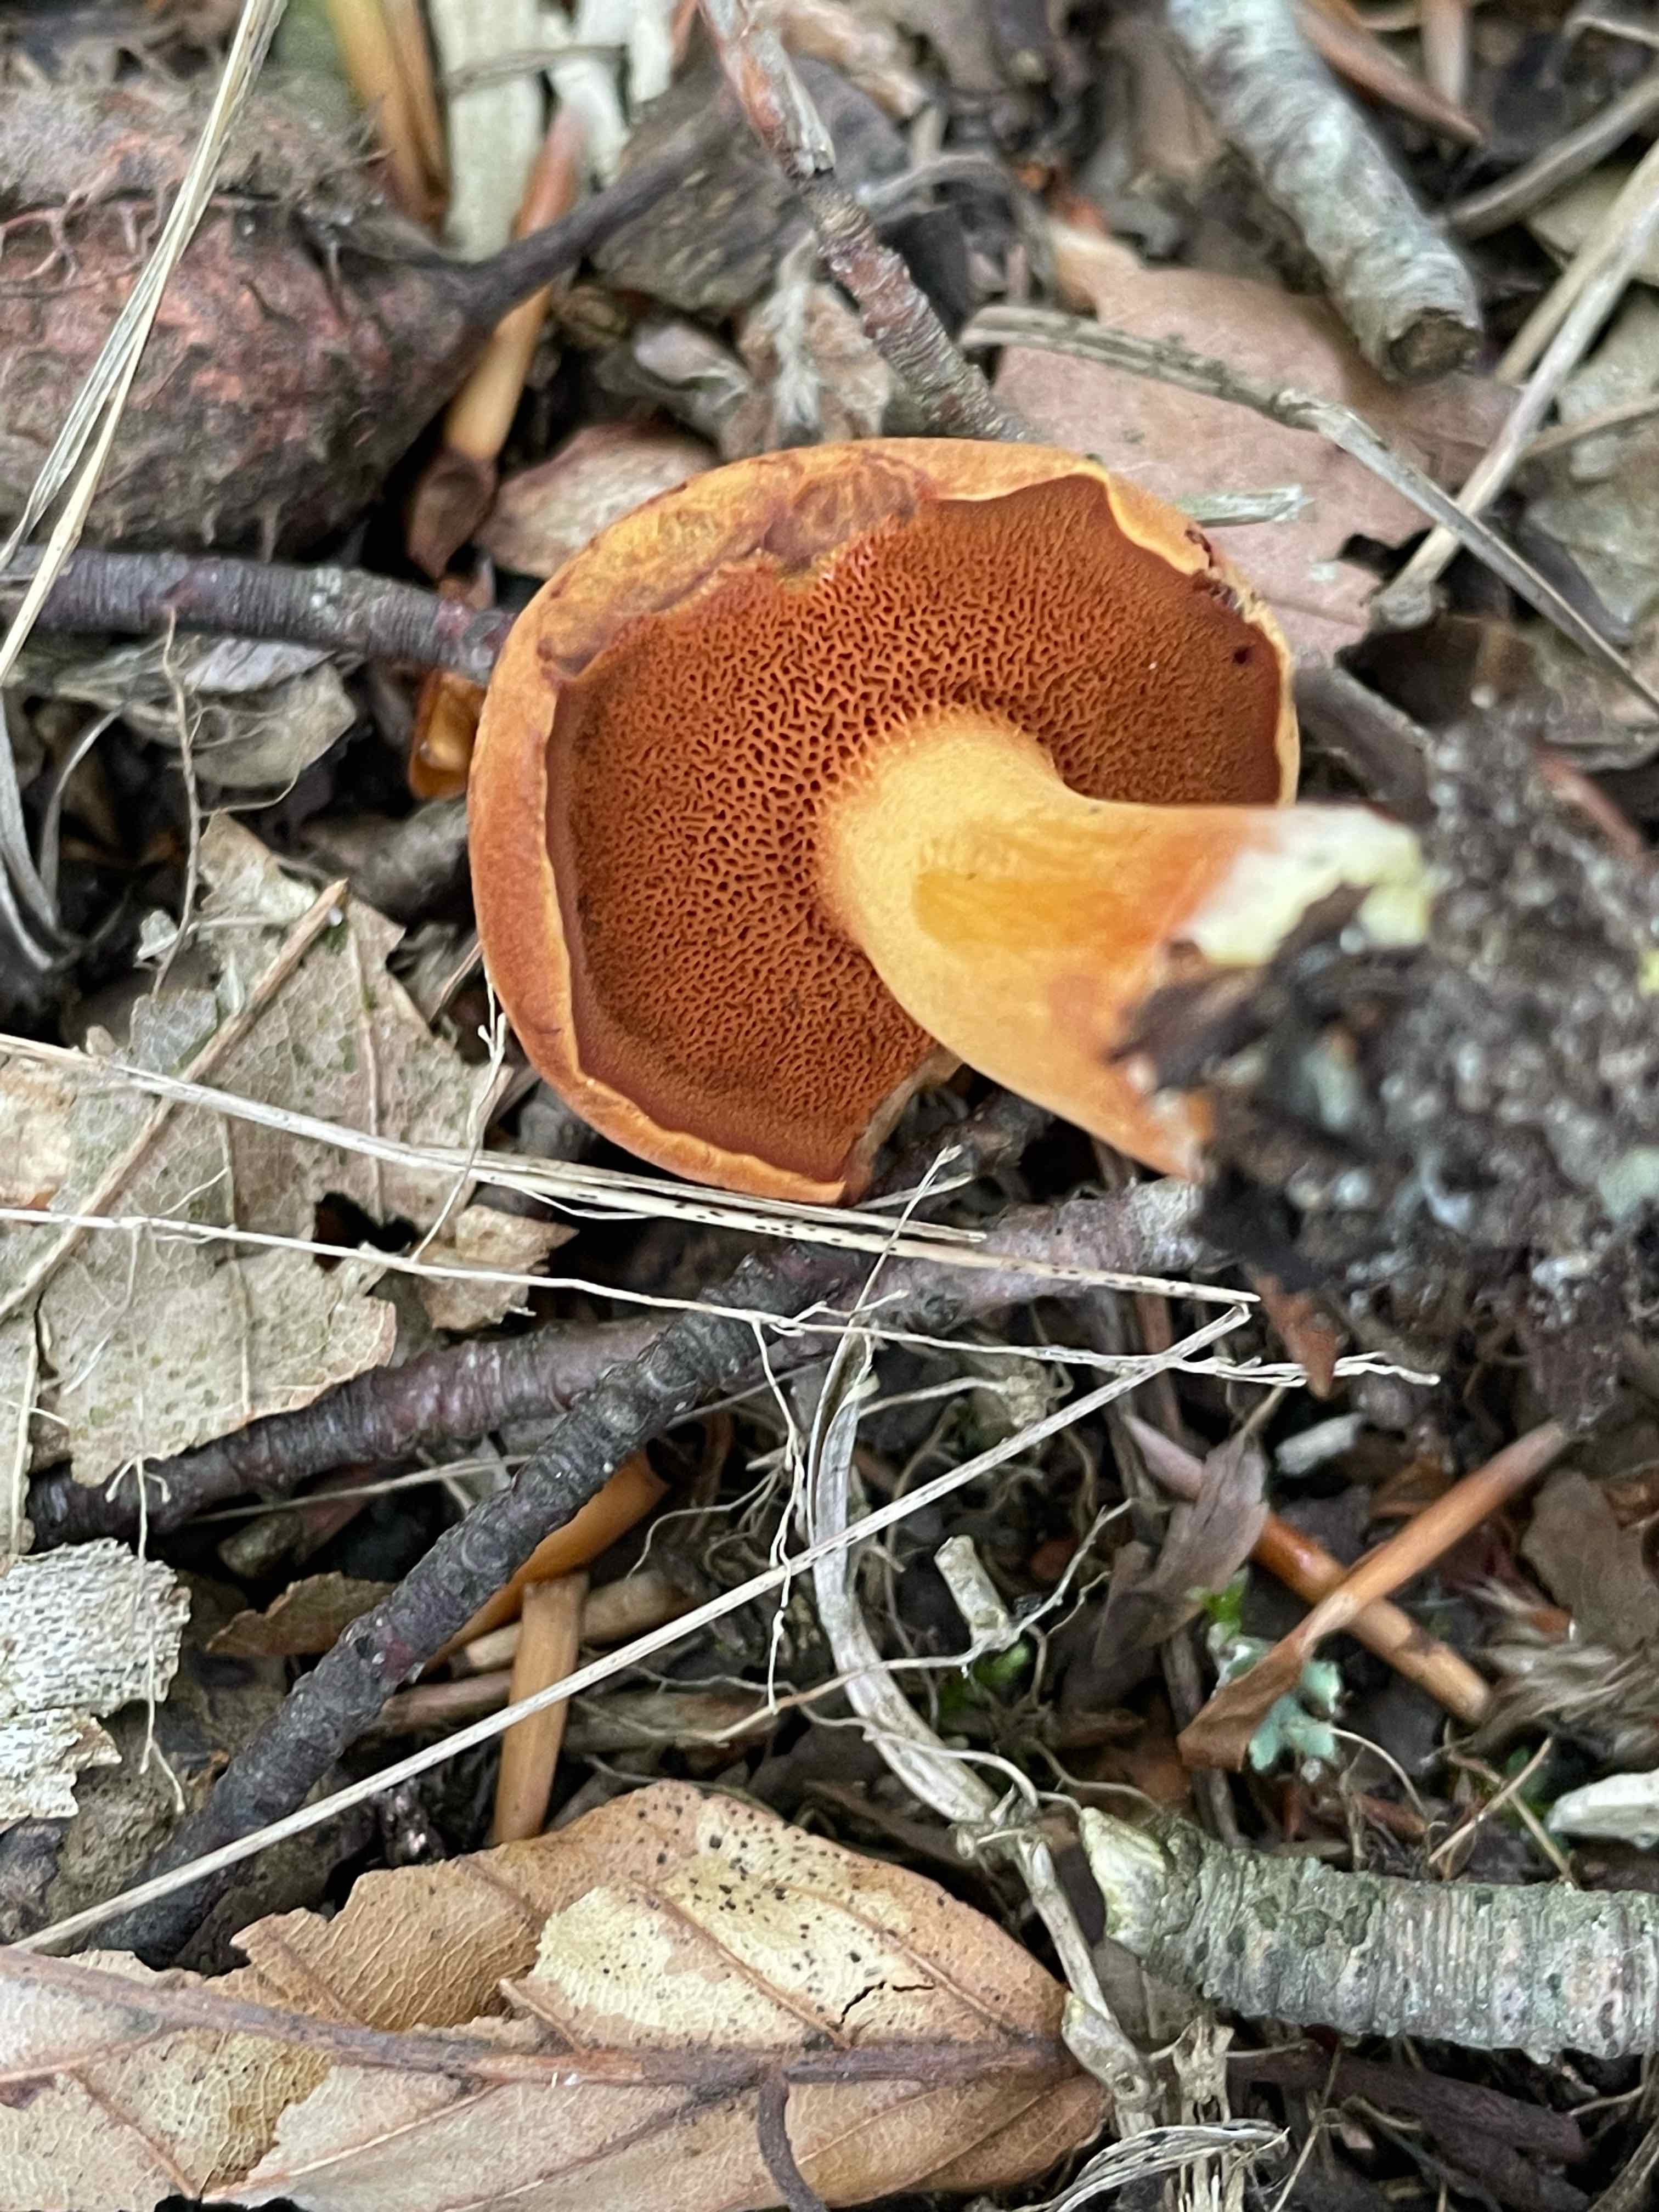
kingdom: Fungi
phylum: Basidiomycota
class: Agaricomycetes
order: Boletales
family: Boletaceae
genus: Chalciporus
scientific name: Chalciporus piperatus
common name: peberrørhat
